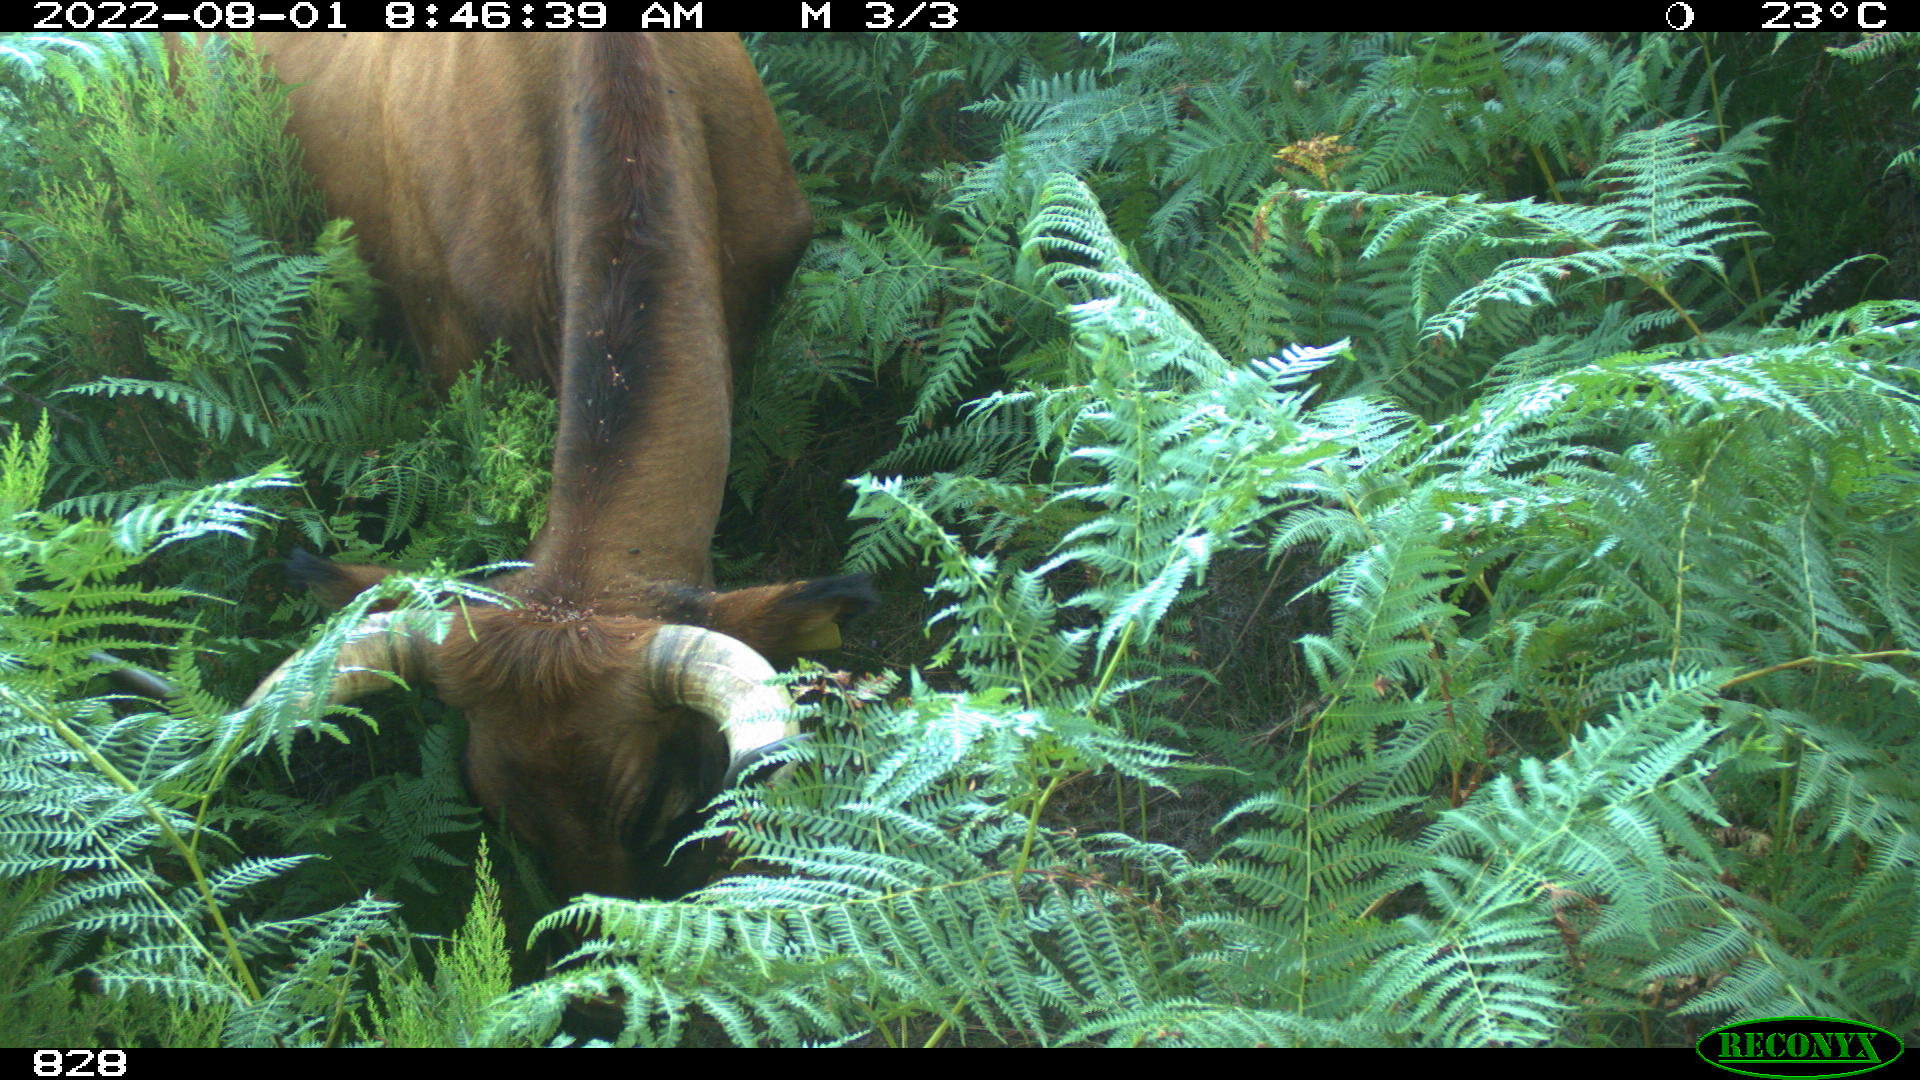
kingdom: Animalia
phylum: Chordata
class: Mammalia
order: Artiodactyla
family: Bovidae
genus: Bos
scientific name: Bos taurus
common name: Domesticated cattle
